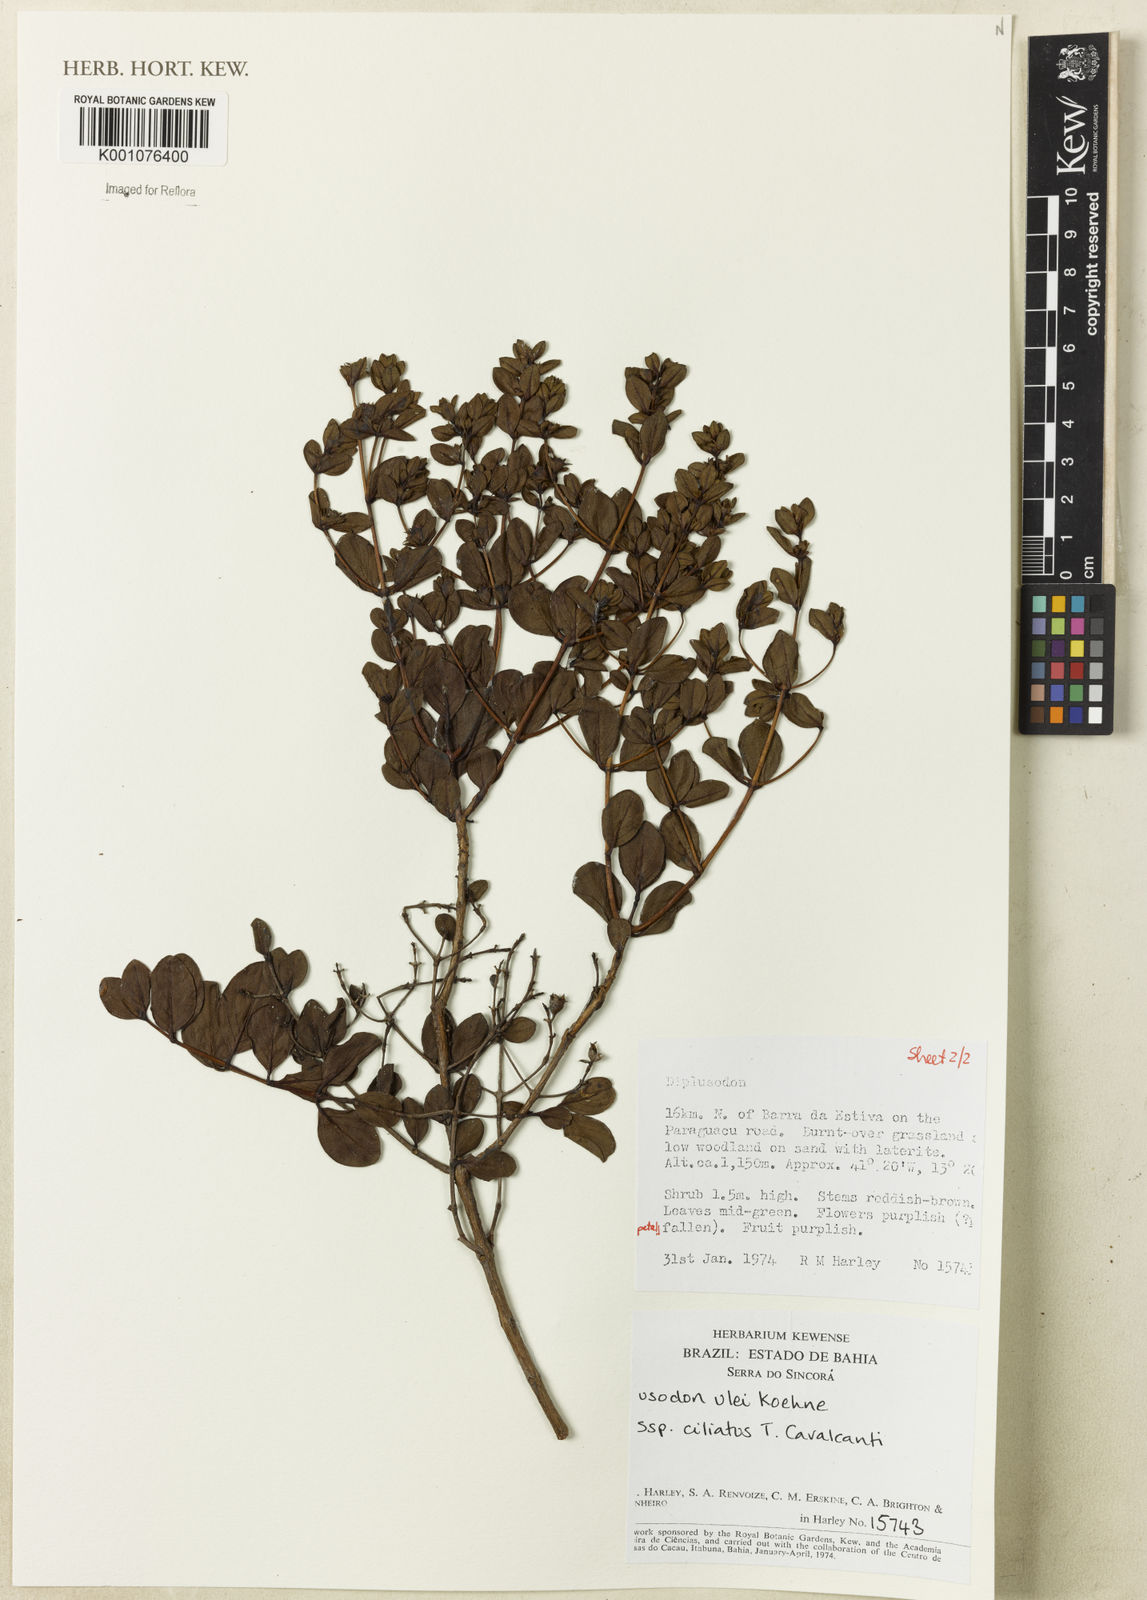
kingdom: Plantae
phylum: Tracheophyta
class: Magnoliopsida
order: Myrtales
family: Lythraceae
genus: Diplusodon
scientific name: Diplusodon ciliatus
